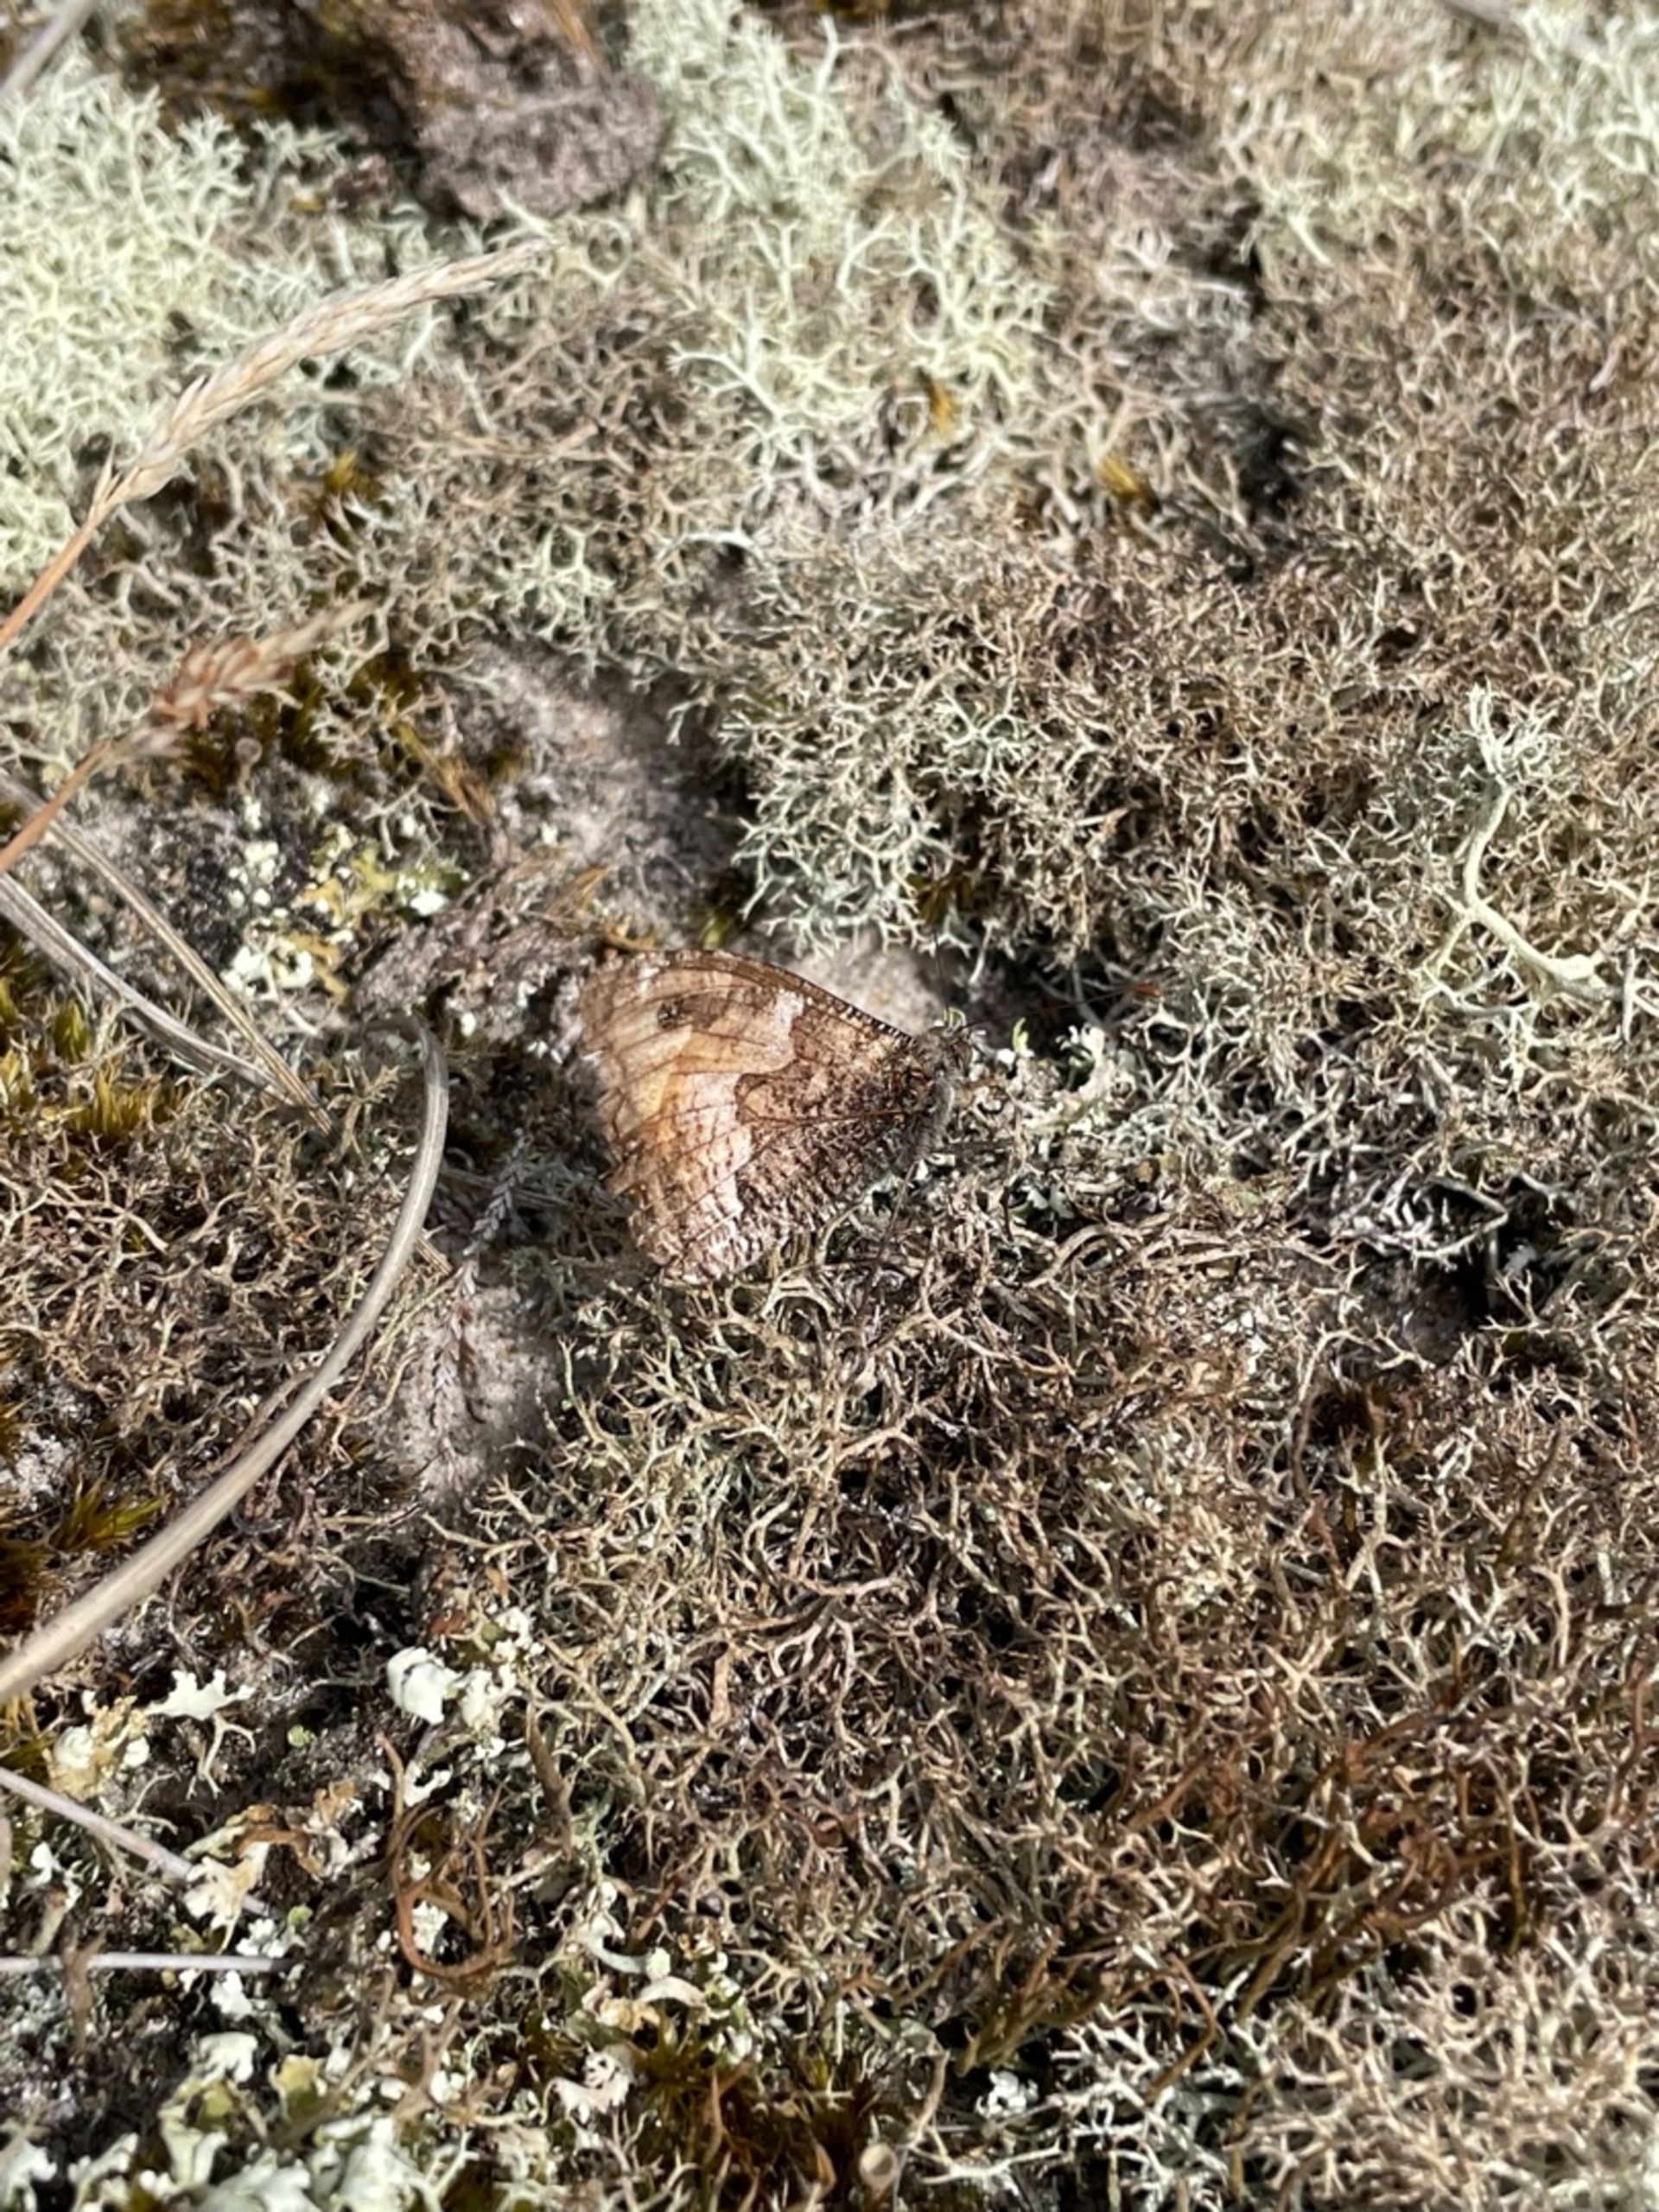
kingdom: Animalia
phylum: Arthropoda
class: Insecta
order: Lepidoptera
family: Nymphalidae
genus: Hipparchia
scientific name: Hipparchia semele
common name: Sandrandøje
